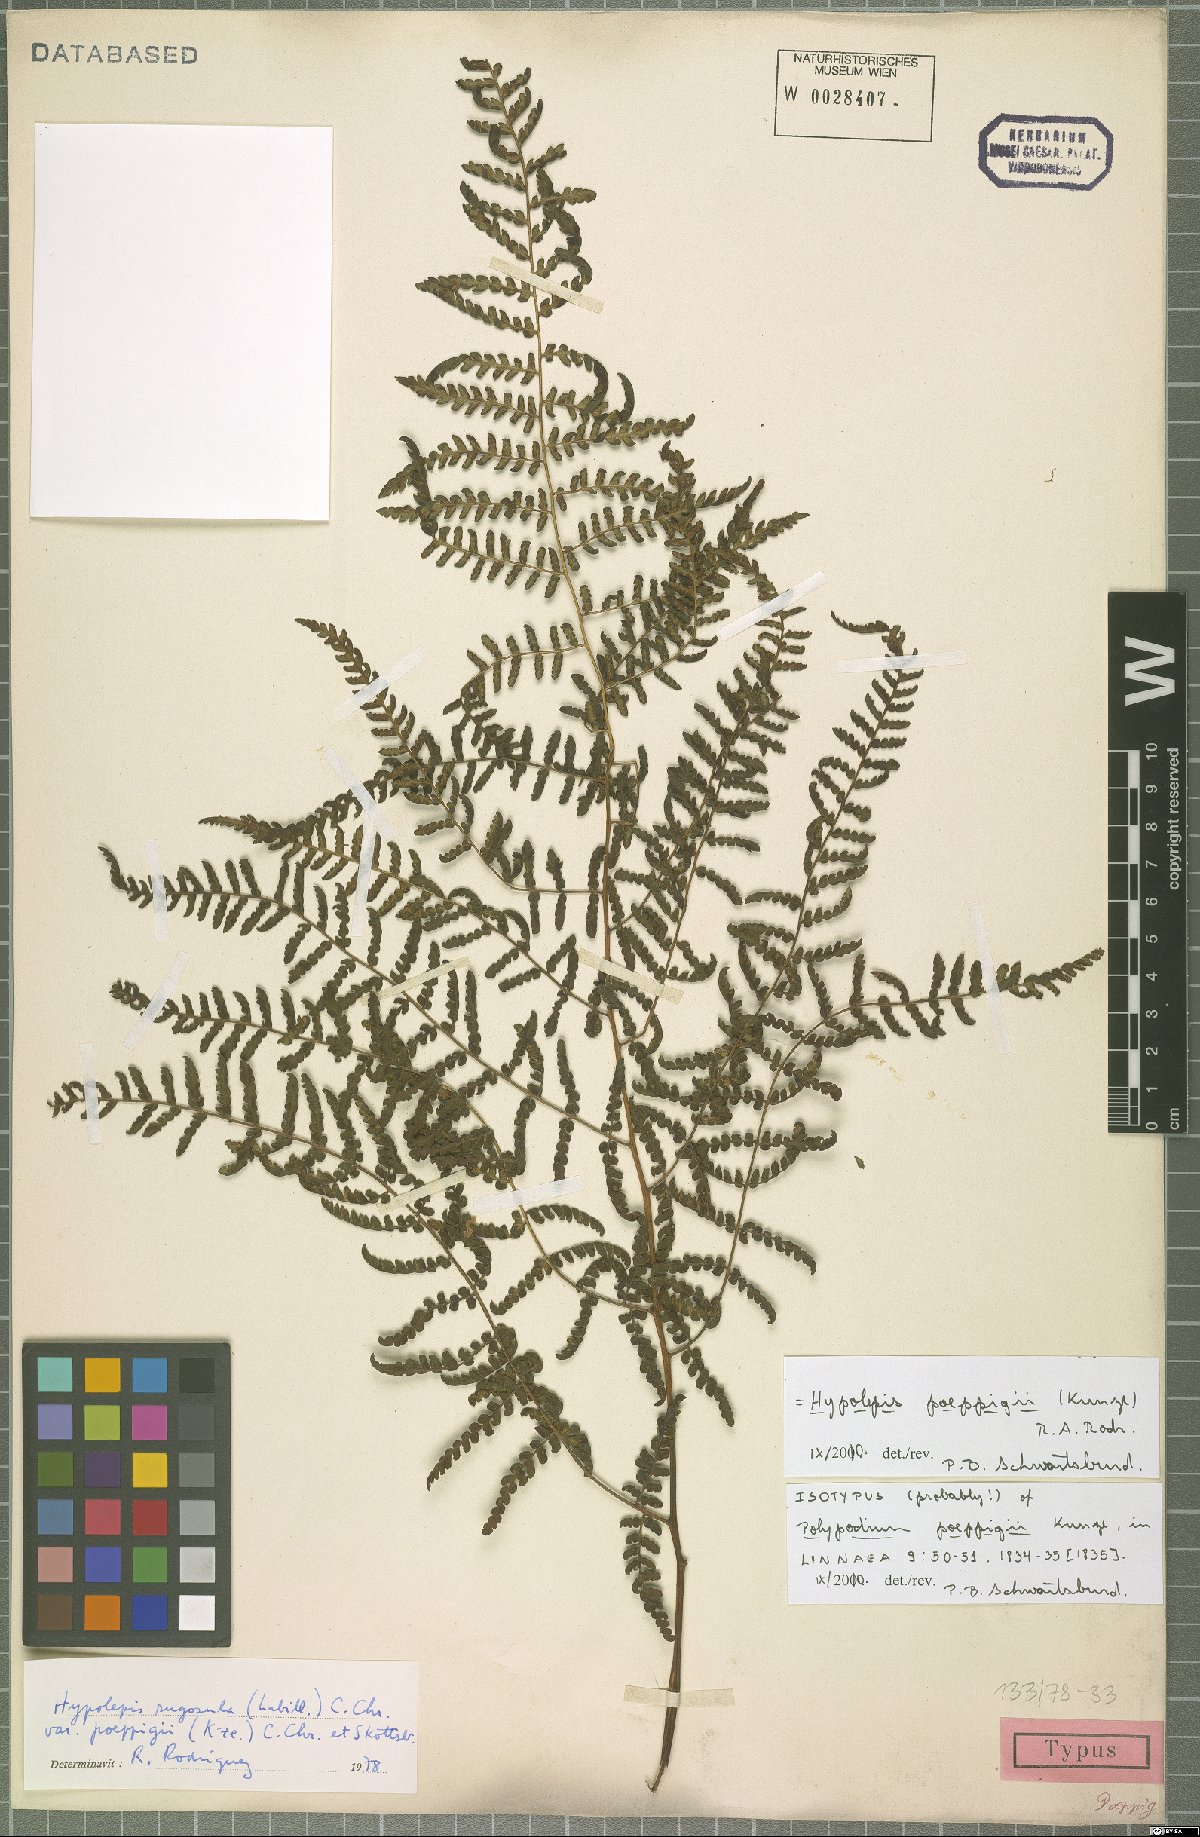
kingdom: Plantae
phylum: Tracheophyta
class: Polypodiopsida
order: Polypodiales
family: Dennstaedtiaceae
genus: Hypolepis
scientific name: Hypolepis poeppigii
